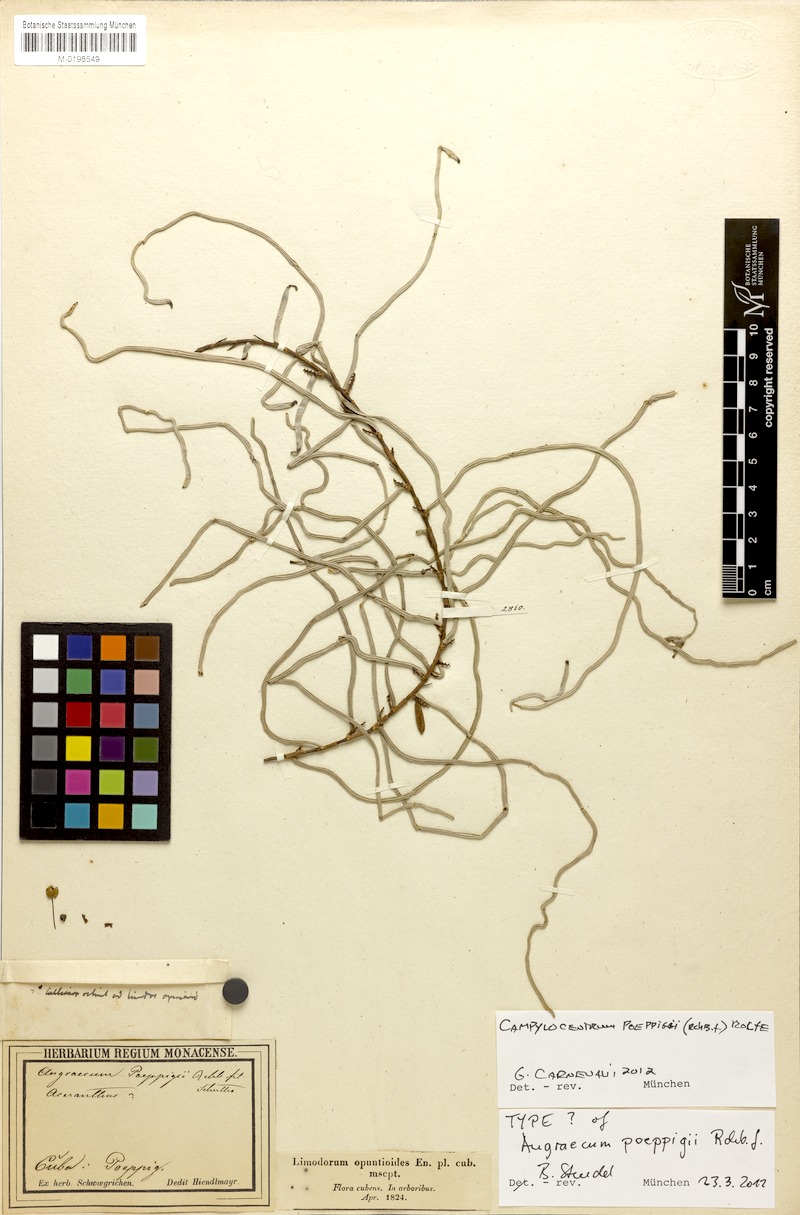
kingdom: Plantae
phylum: Tracheophyta
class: Liliopsida
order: Asparagales
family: Orchidaceae
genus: Campylocentrum
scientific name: Campylocentrum poeppigii
